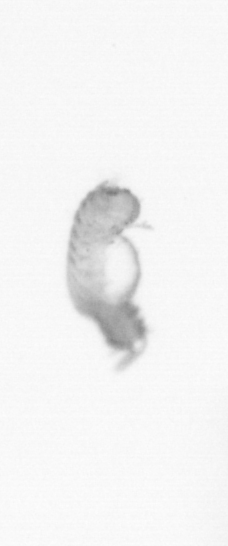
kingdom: Animalia
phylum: Annelida
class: Polychaeta
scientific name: Polychaeta
